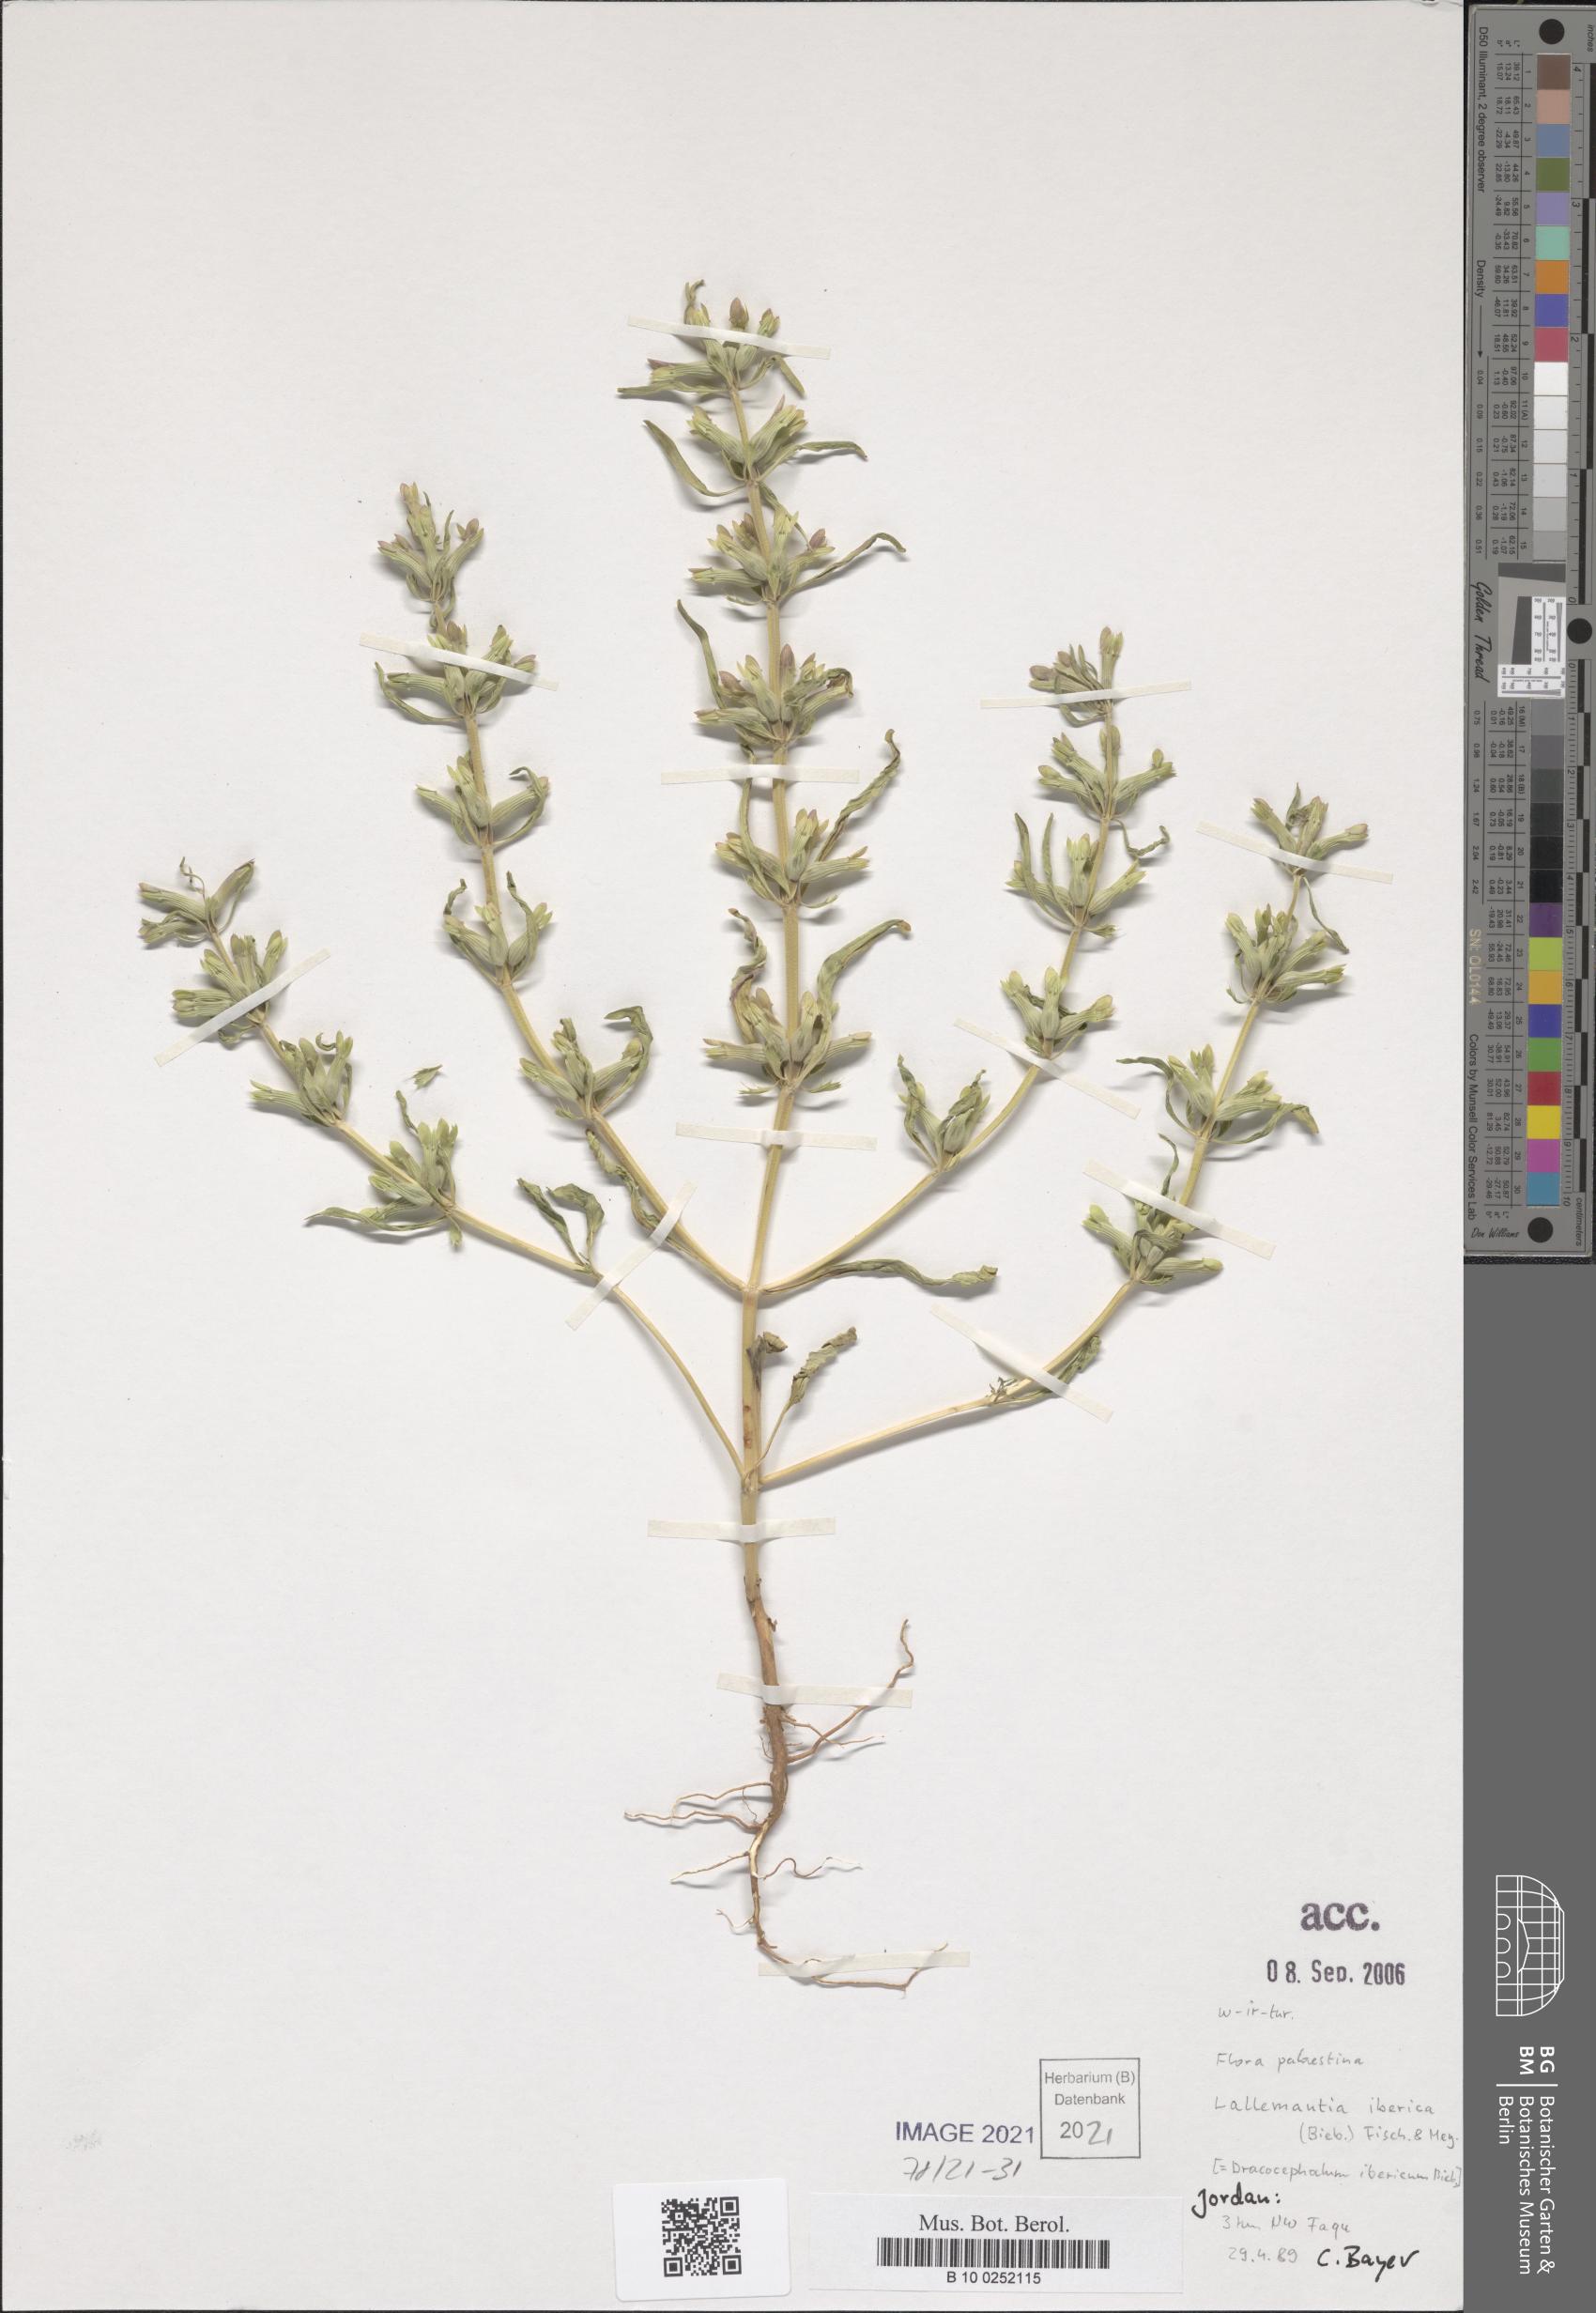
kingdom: Plantae
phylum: Tracheophyta
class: Magnoliopsida
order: Lamiales
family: Lamiaceae
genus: Lallemantia
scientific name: Lallemantia iberica
